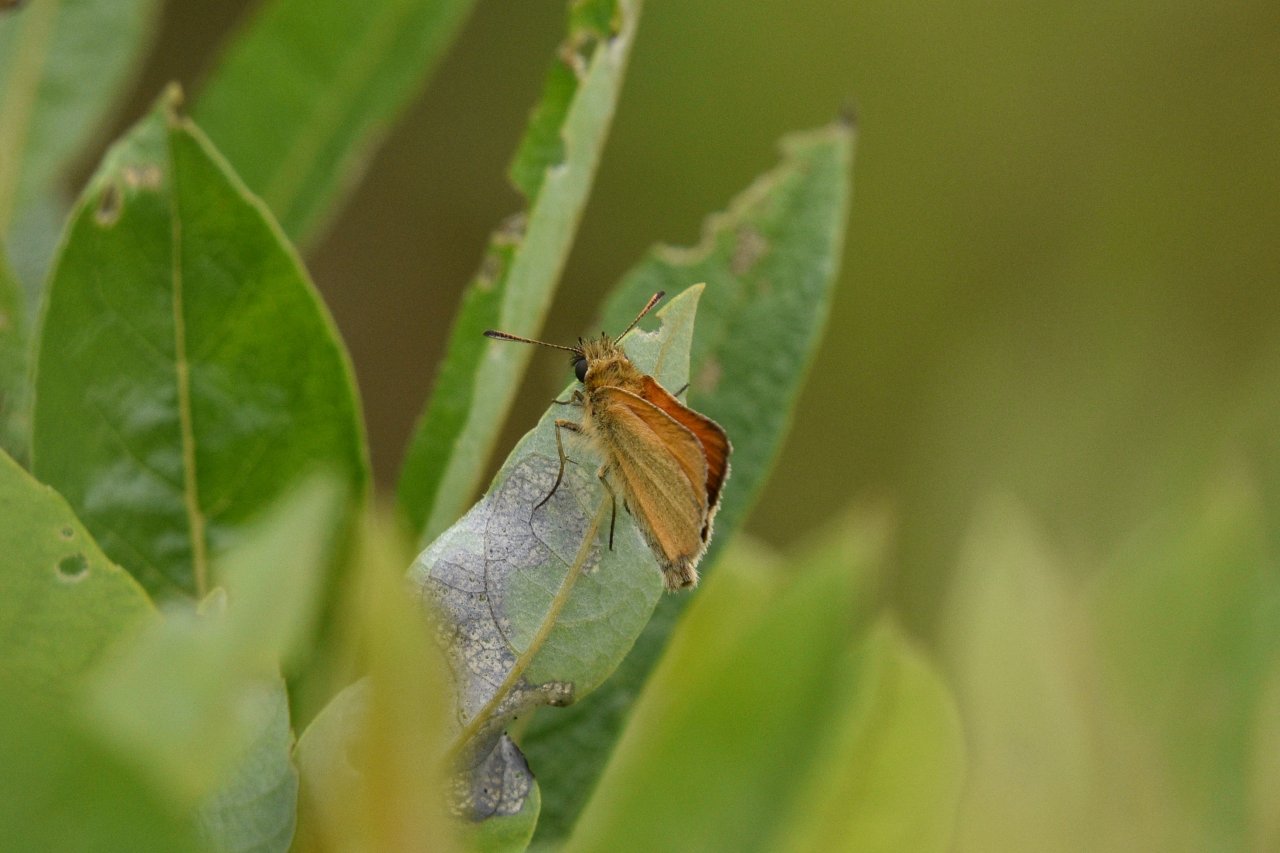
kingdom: Animalia
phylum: Arthropoda
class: Insecta
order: Lepidoptera
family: Hesperiidae
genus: Thymelicus
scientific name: Thymelicus lineola
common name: European Skipper
